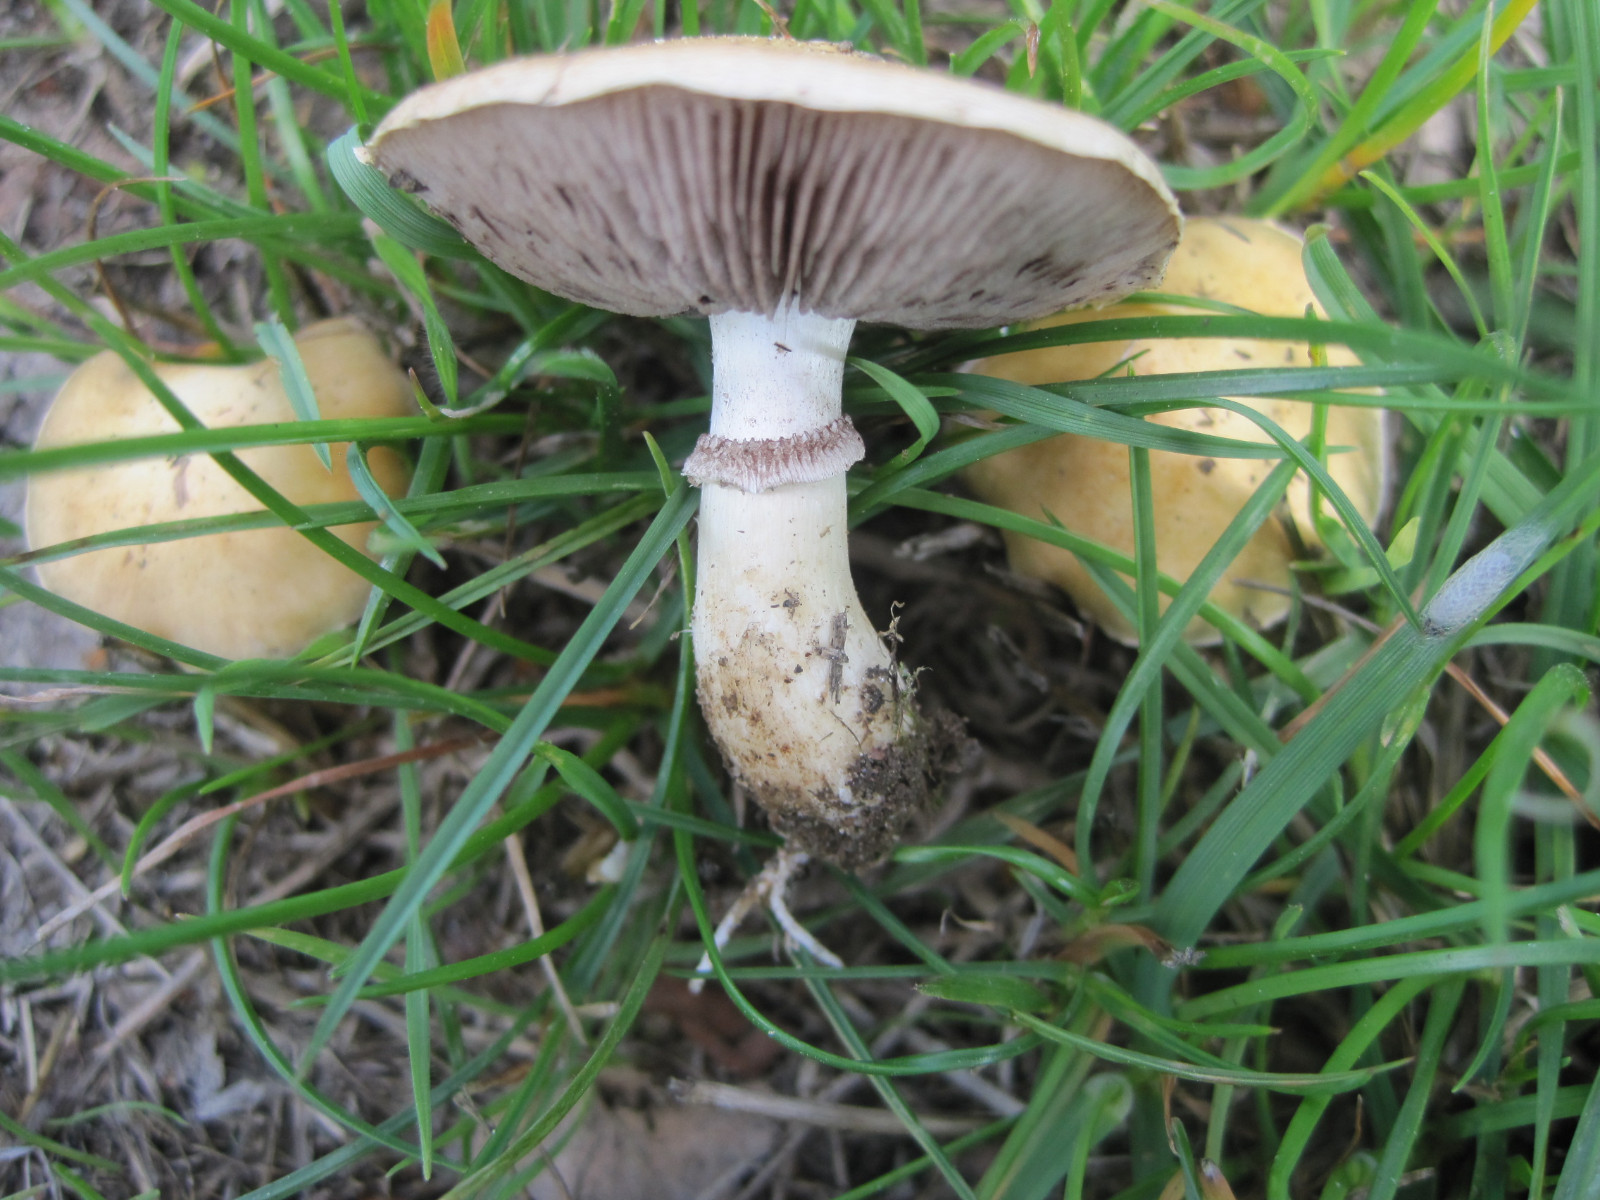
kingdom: Fungi
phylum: Basidiomycota
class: Agaricomycetes
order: Agaricales
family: Hymenogastraceae
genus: Psilocybe
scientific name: Psilocybe coronilla
